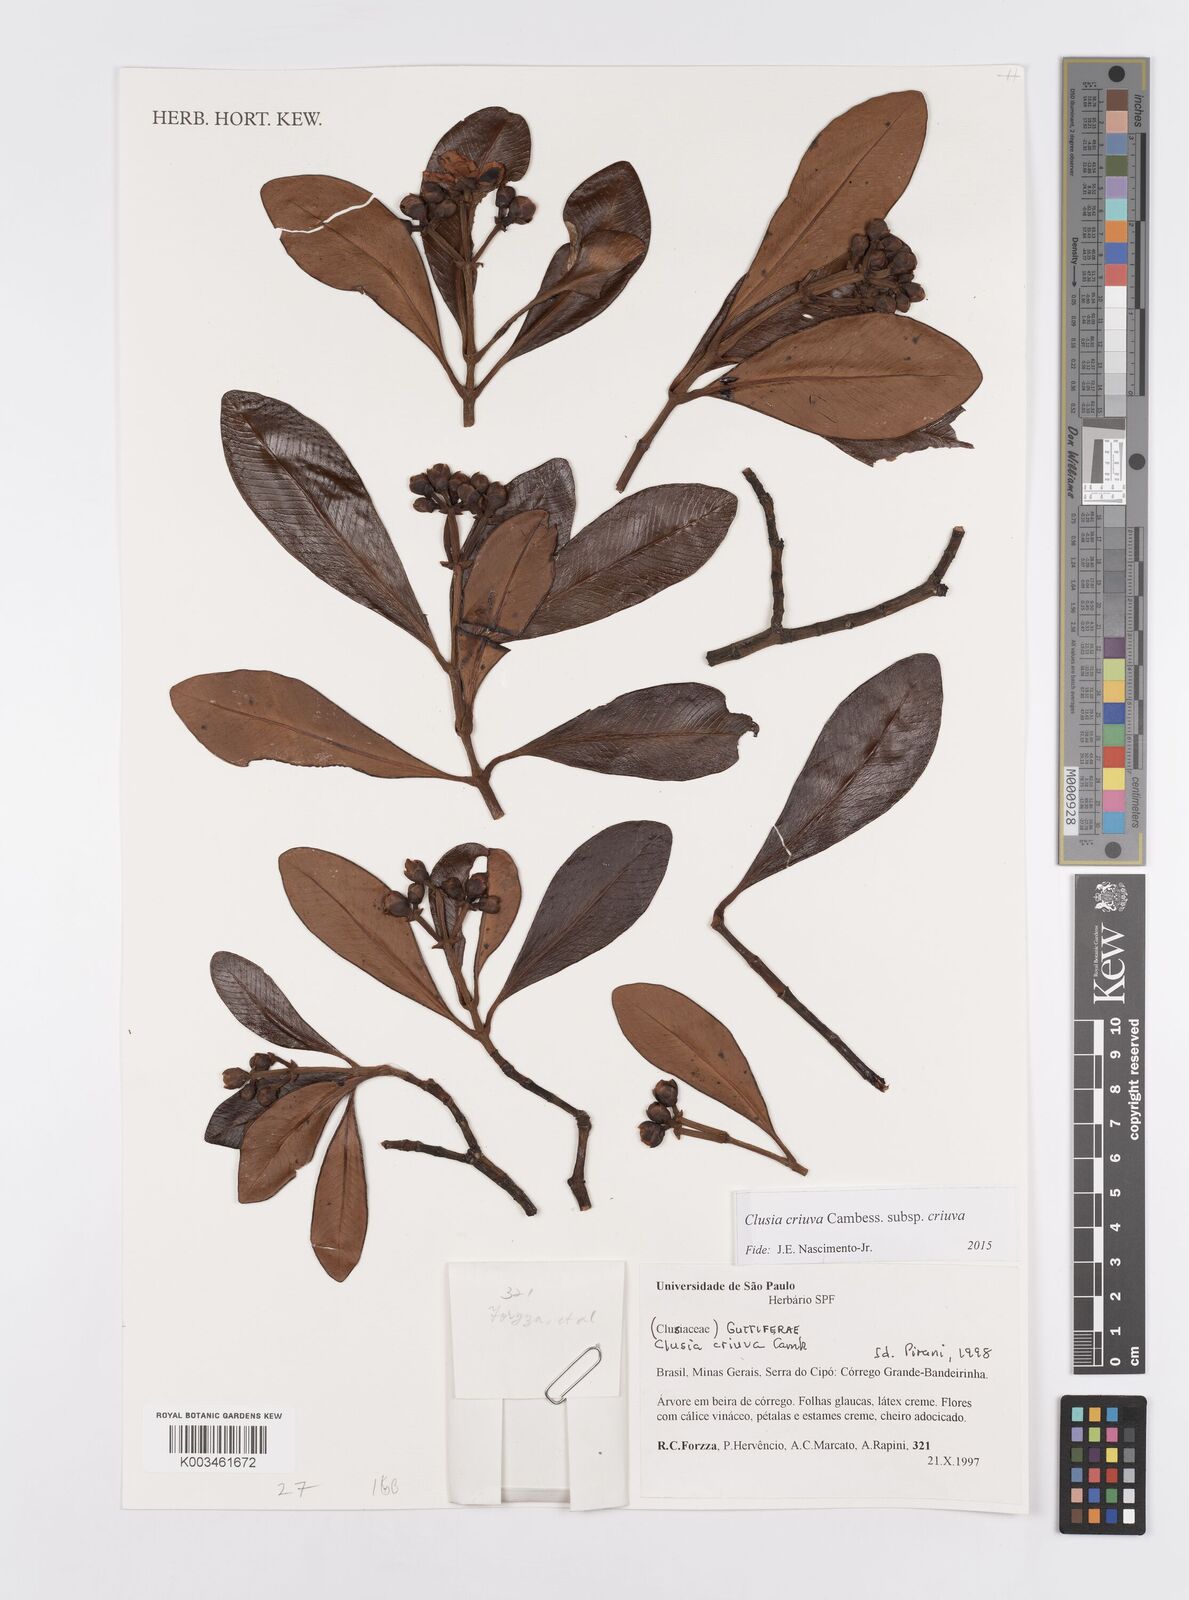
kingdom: Plantae
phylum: Tracheophyta
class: Magnoliopsida
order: Malpighiales
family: Clusiaceae
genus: Clusia
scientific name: Clusia criuva
